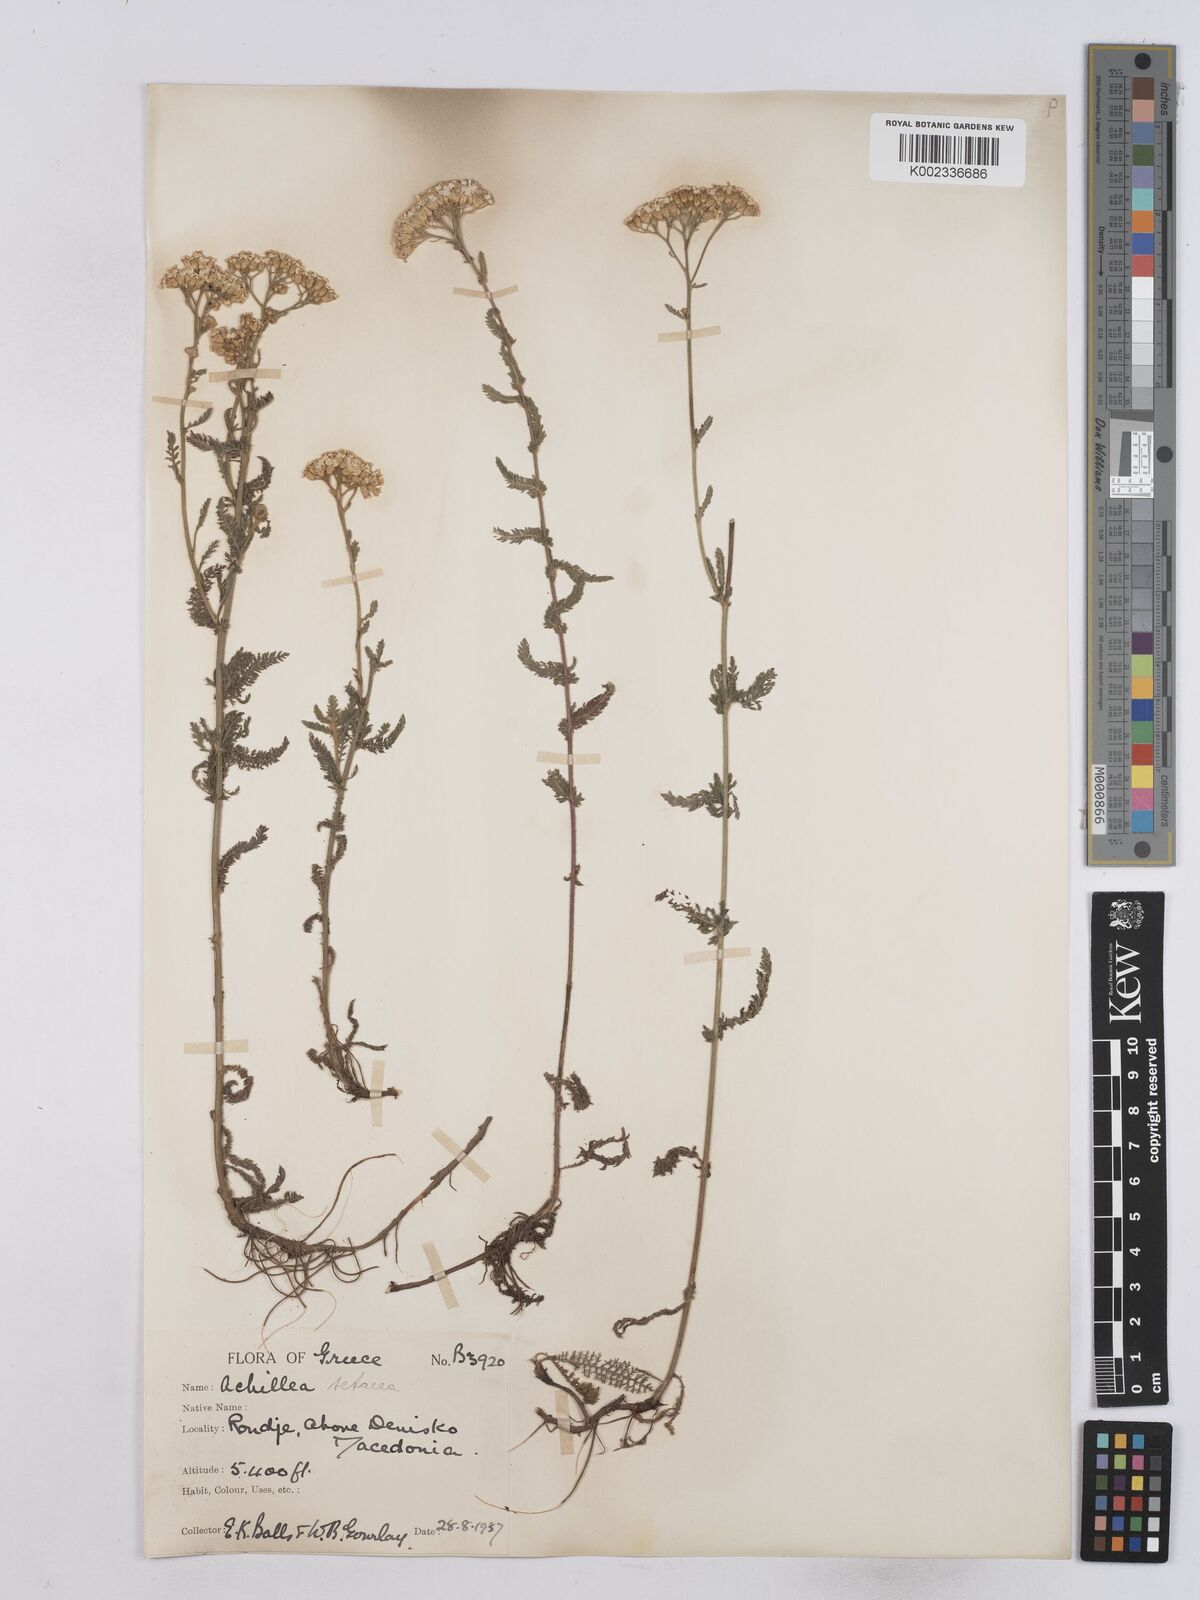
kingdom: Plantae
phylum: Tracheophyta
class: Magnoliopsida
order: Asterales
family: Asteraceae
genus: Achillea
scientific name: Achillea setacea
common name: Bristly yarrow
